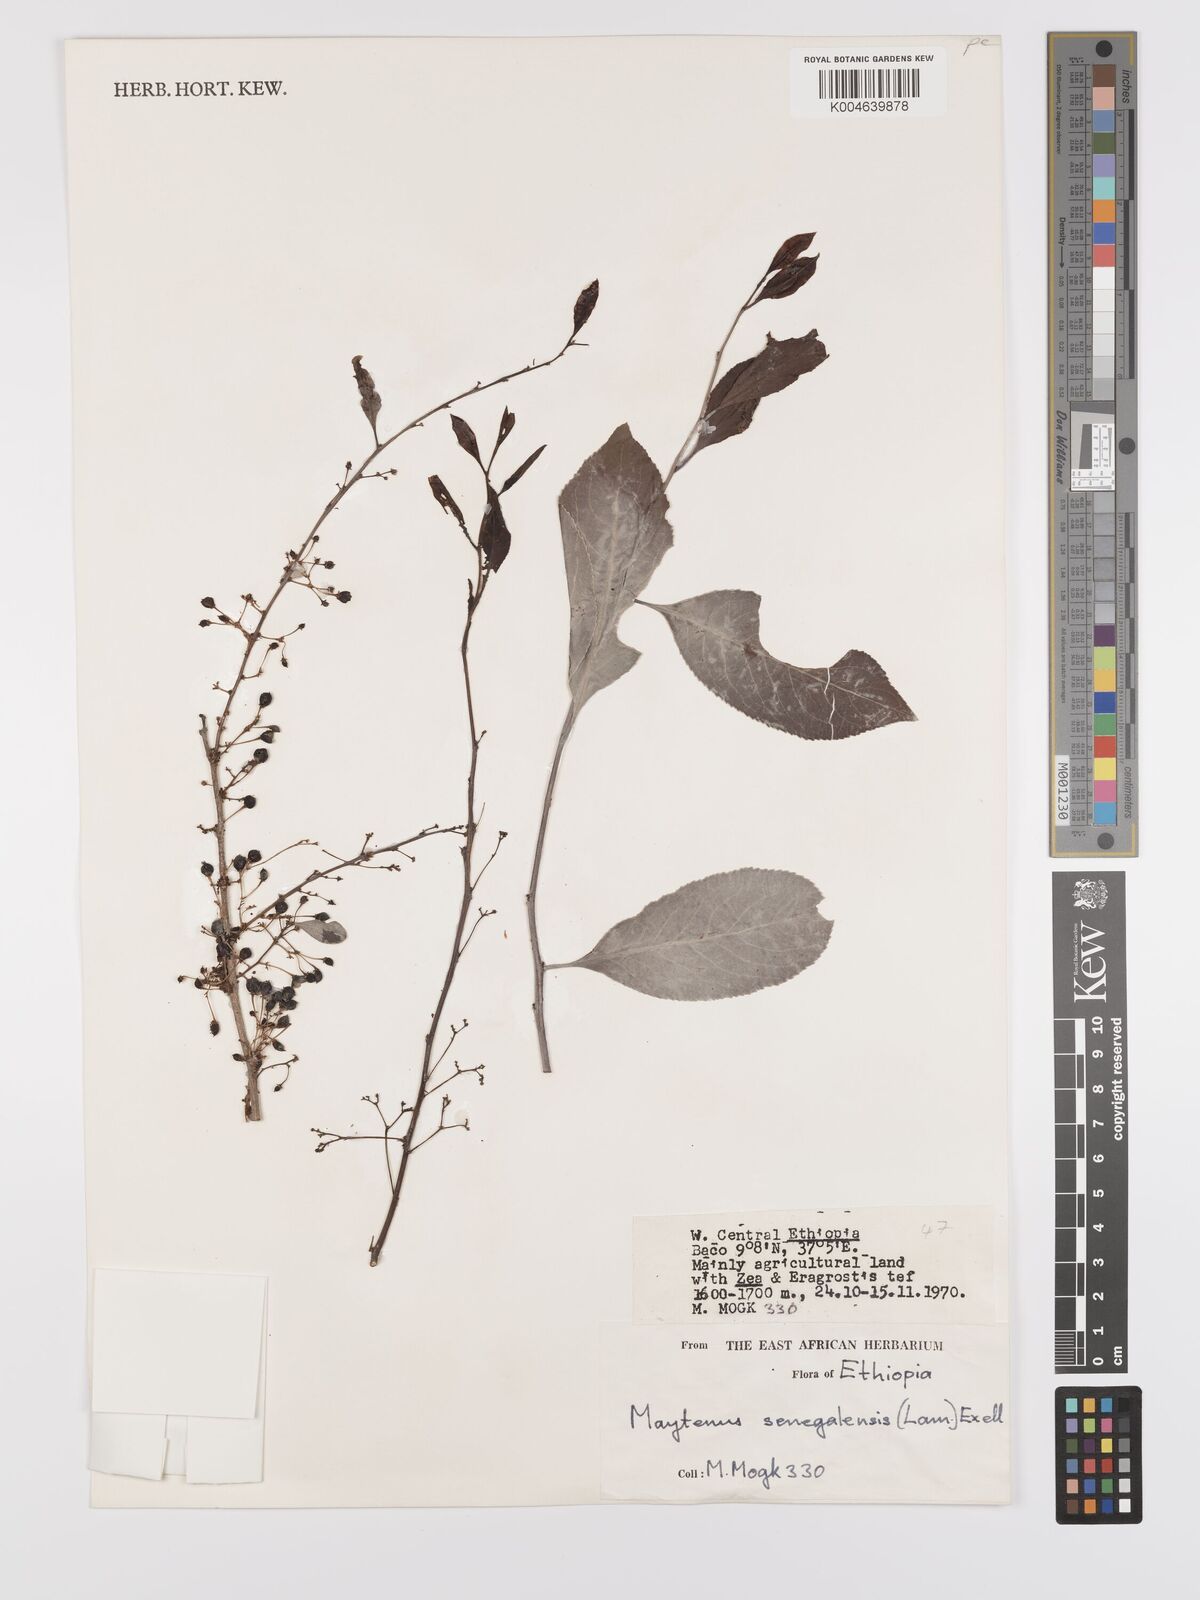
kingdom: Plantae
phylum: Tracheophyta
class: Magnoliopsida
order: Celastrales
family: Celastraceae
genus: Gymnosporia
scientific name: Gymnosporia senegalensis
